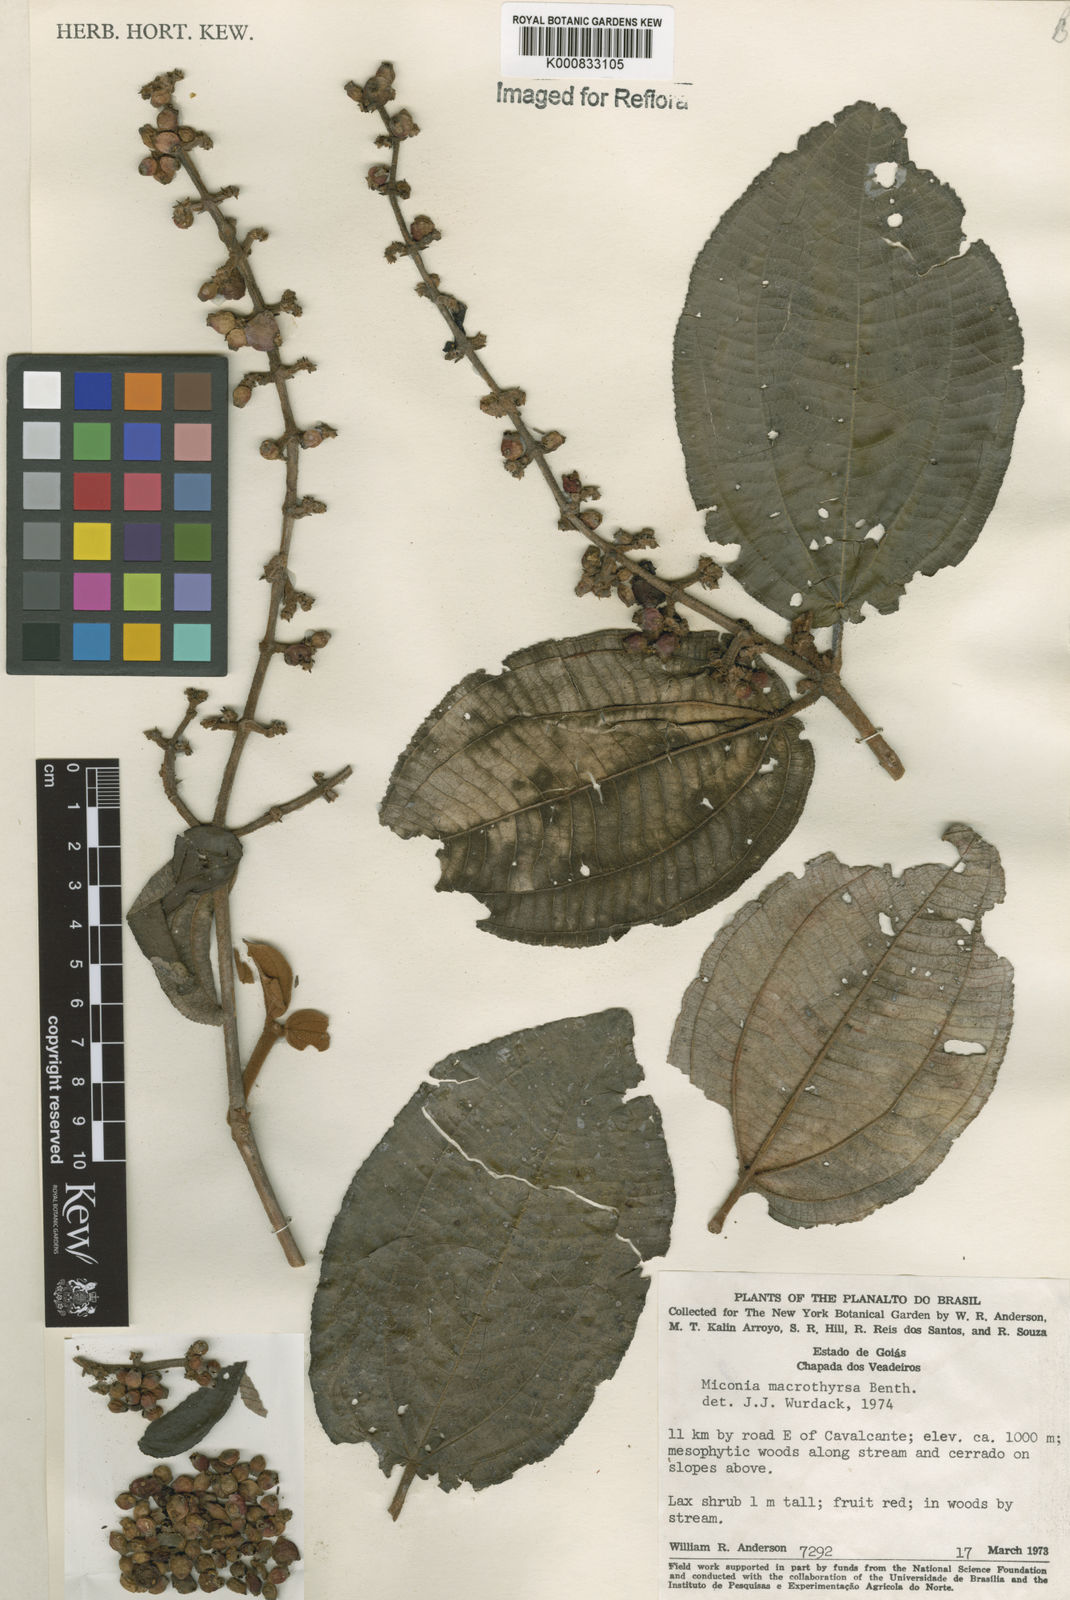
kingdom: Plantae
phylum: Tracheophyta
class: Magnoliopsida
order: Myrtales
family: Melastomataceae
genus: Miconia
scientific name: Miconia macrothyrsa
